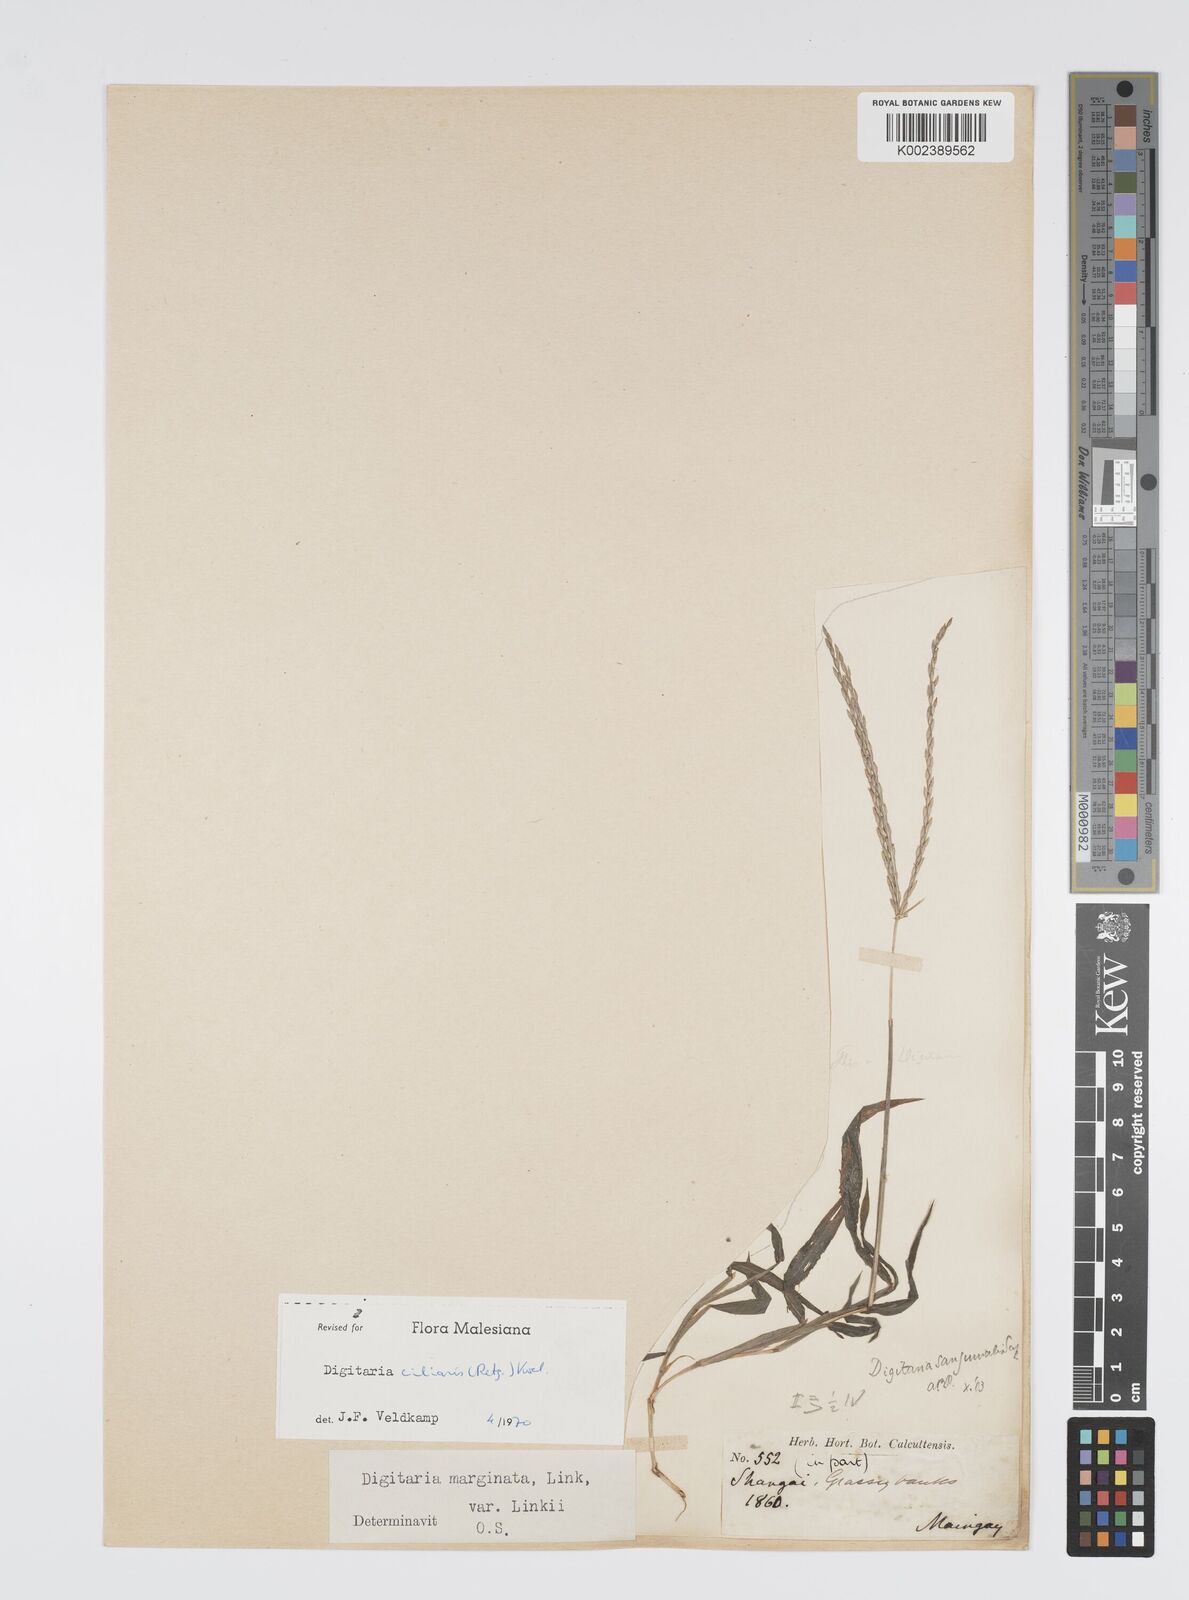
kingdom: Plantae
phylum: Tracheophyta
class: Liliopsida
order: Poales
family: Poaceae
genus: Digitaria
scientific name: Digitaria ciliaris
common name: Tropical finger-grass
